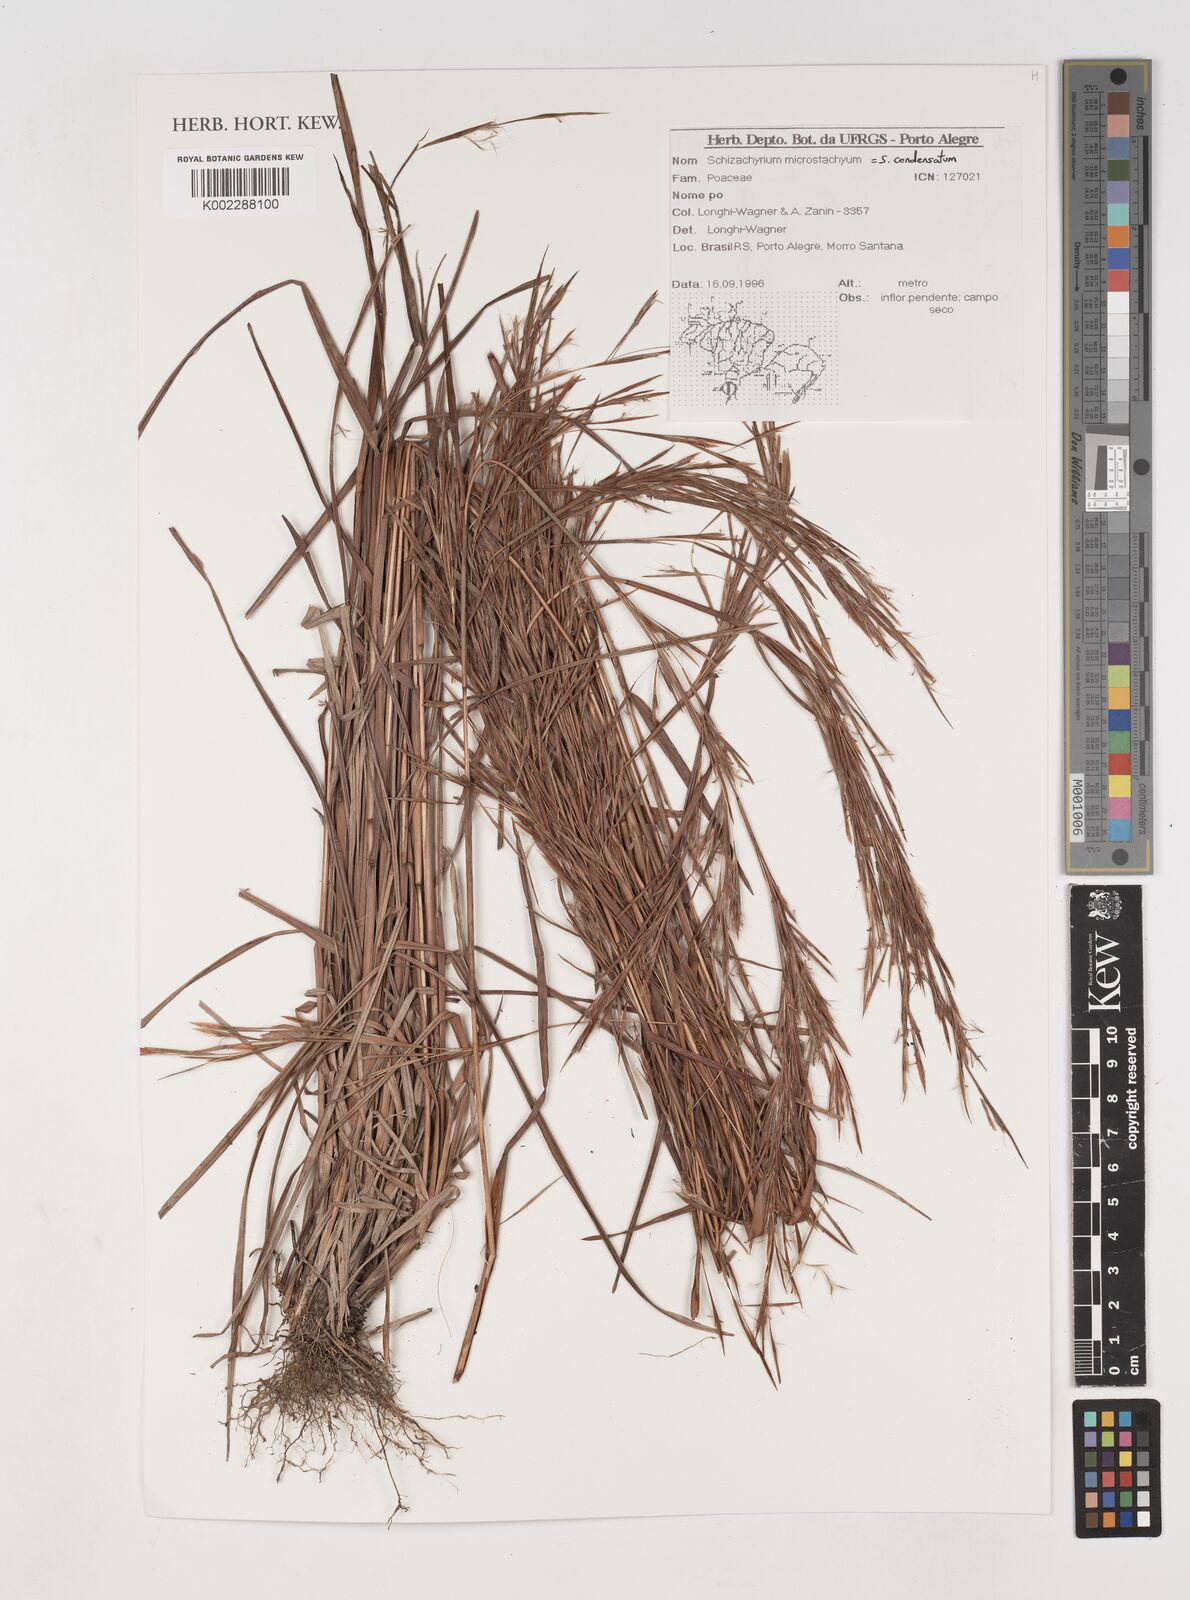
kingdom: Plantae
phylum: Tracheophyta
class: Liliopsida
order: Poales
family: Poaceae
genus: Schizachyrium
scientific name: Schizachyrium condensatum
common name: Bush beardgrass
